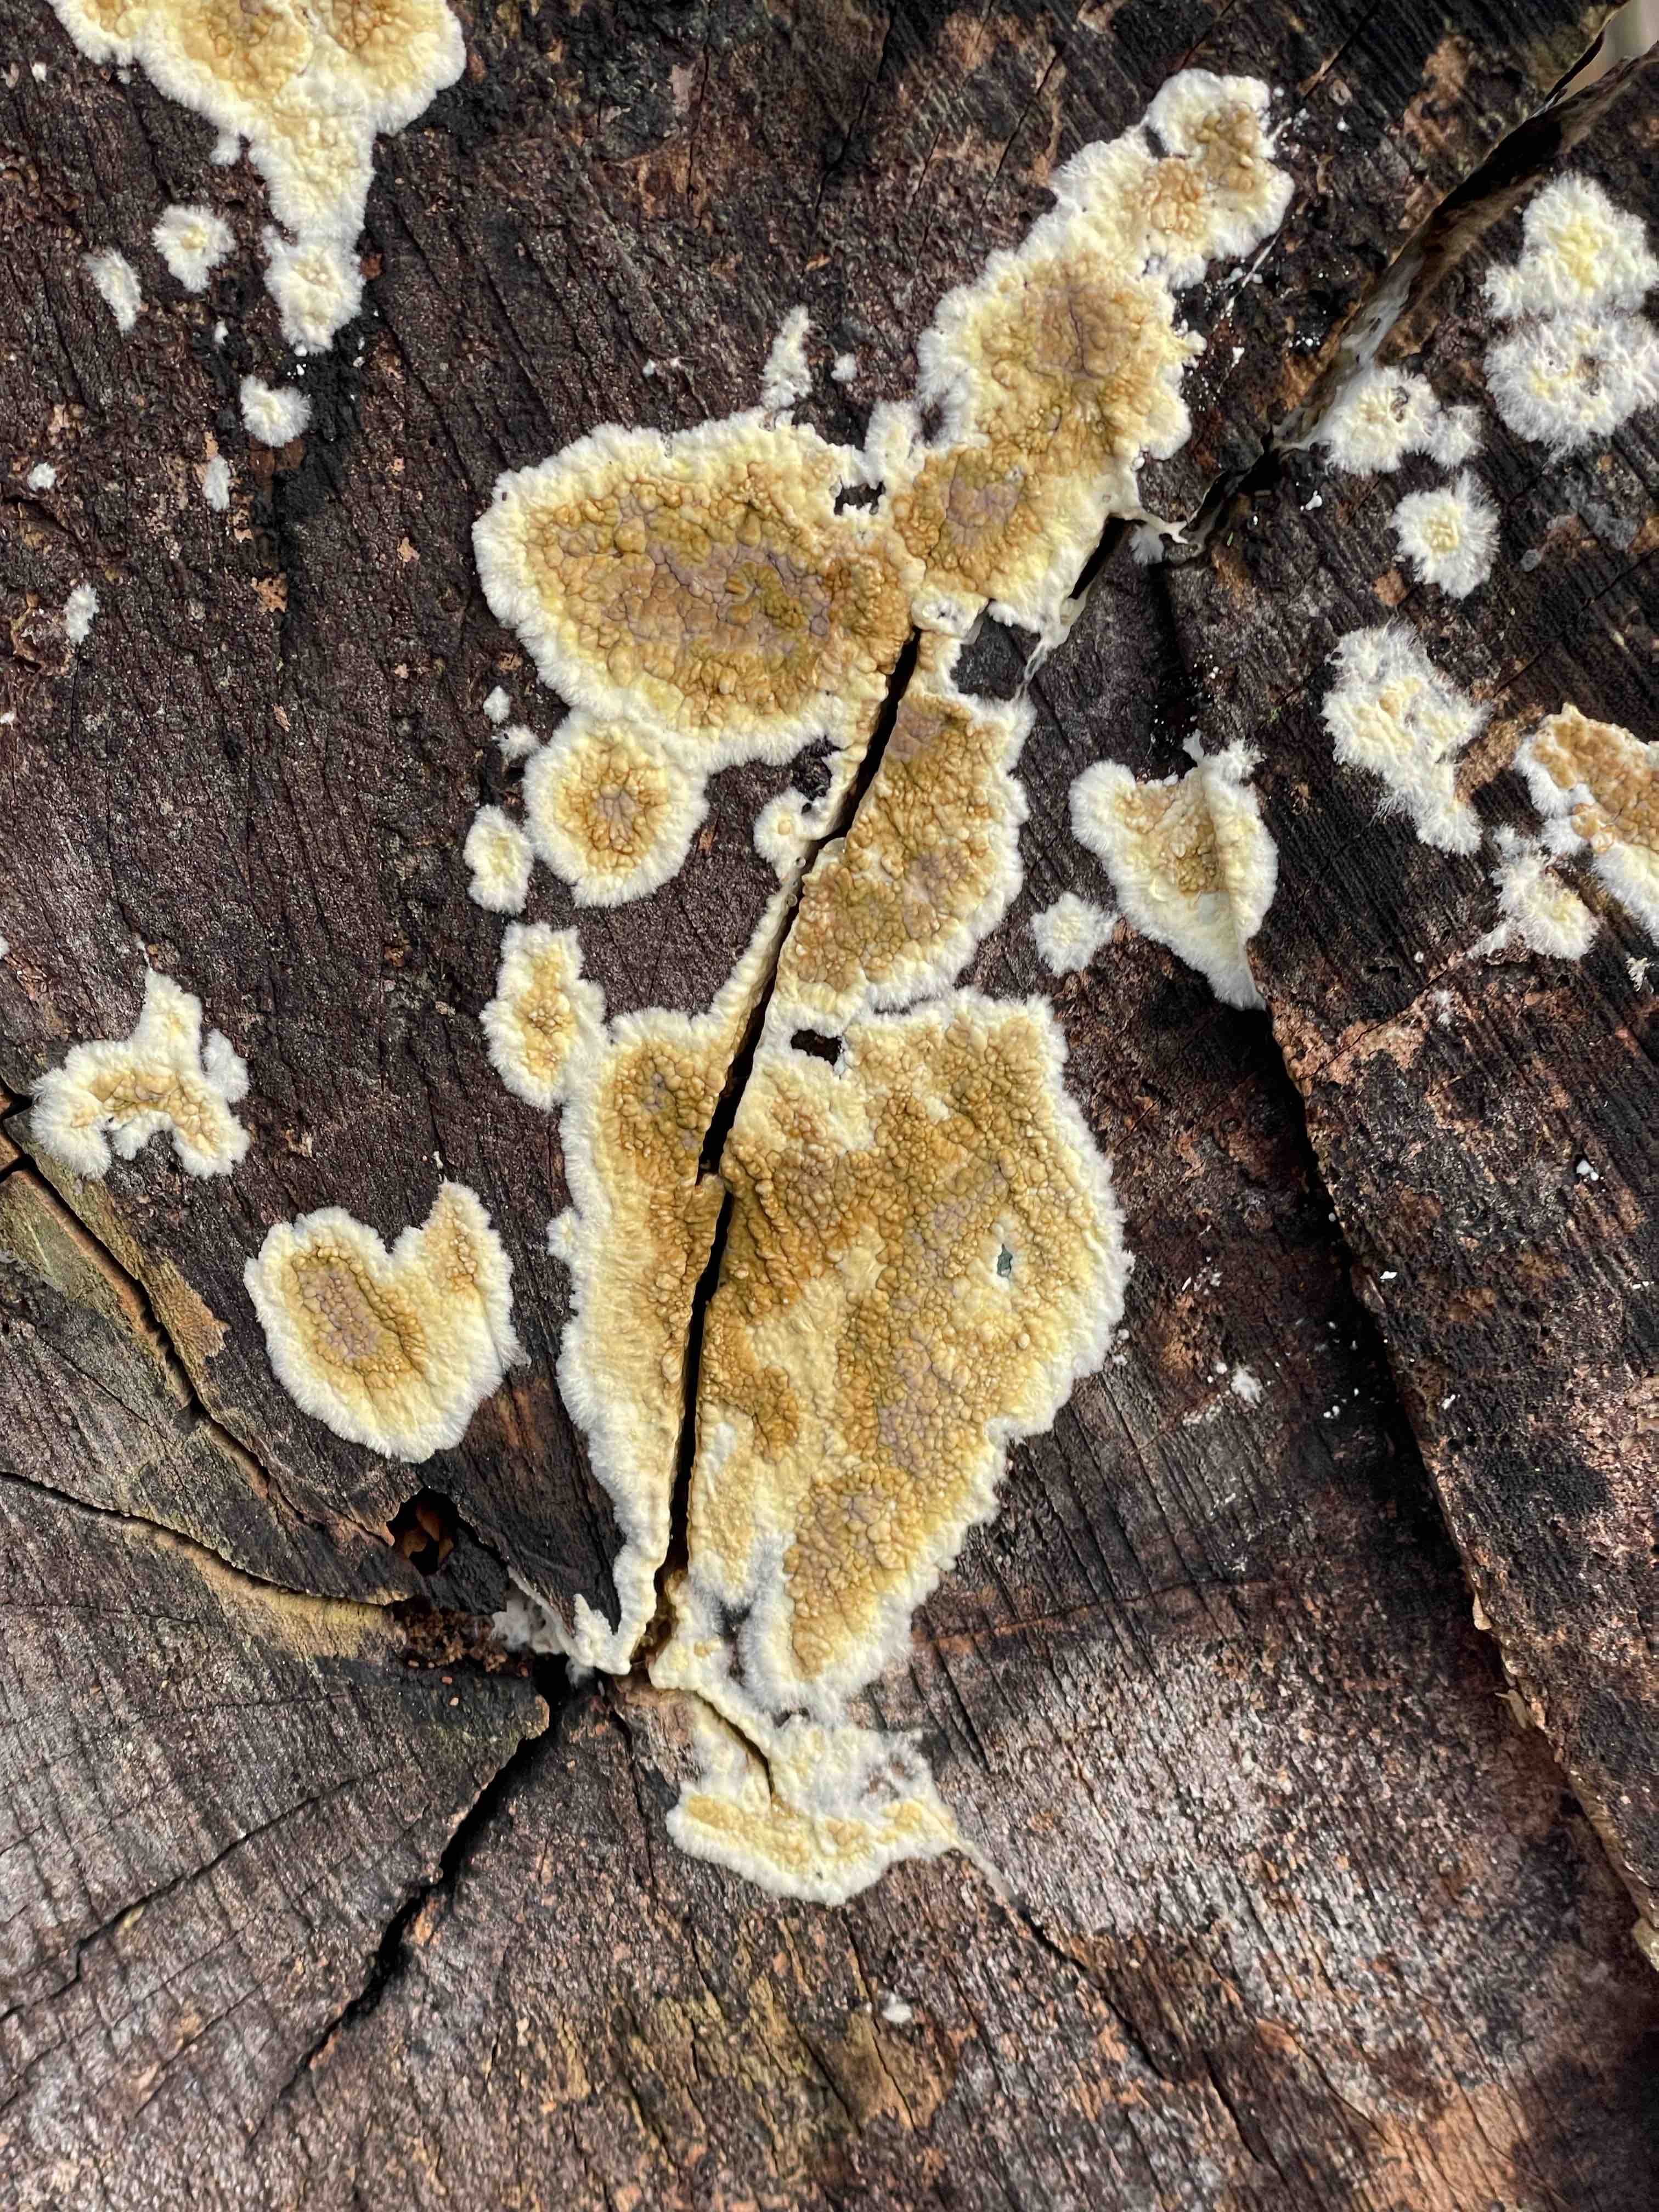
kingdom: Fungi
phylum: Basidiomycota
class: Agaricomycetes
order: Boletales
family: Coniophoraceae
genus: Coniophora
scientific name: Coniophora puteana
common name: gul tømmersvamp
